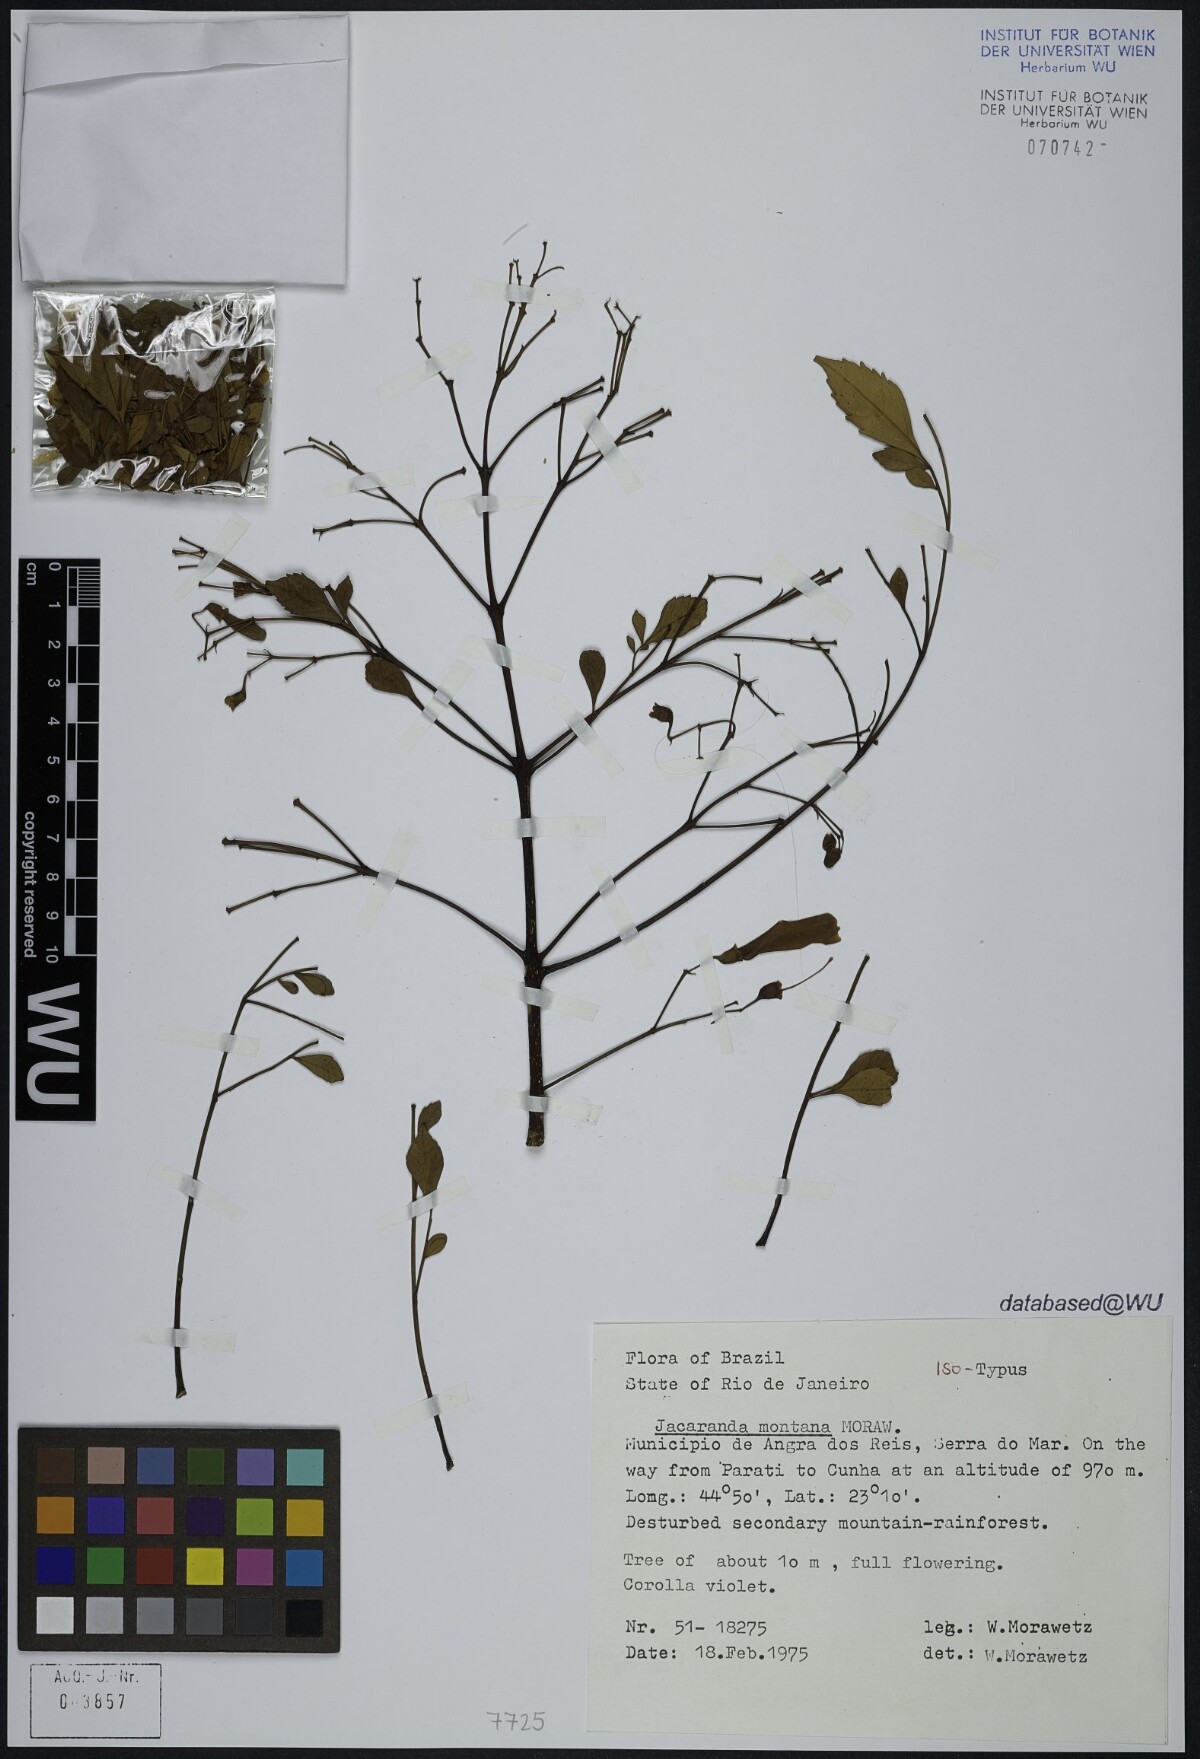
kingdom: Plantae
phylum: Tracheophyta
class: Magnoliopsida
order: Lamiales
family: Bignoniaceae
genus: Jacaranda
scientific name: Jacaranda montana
